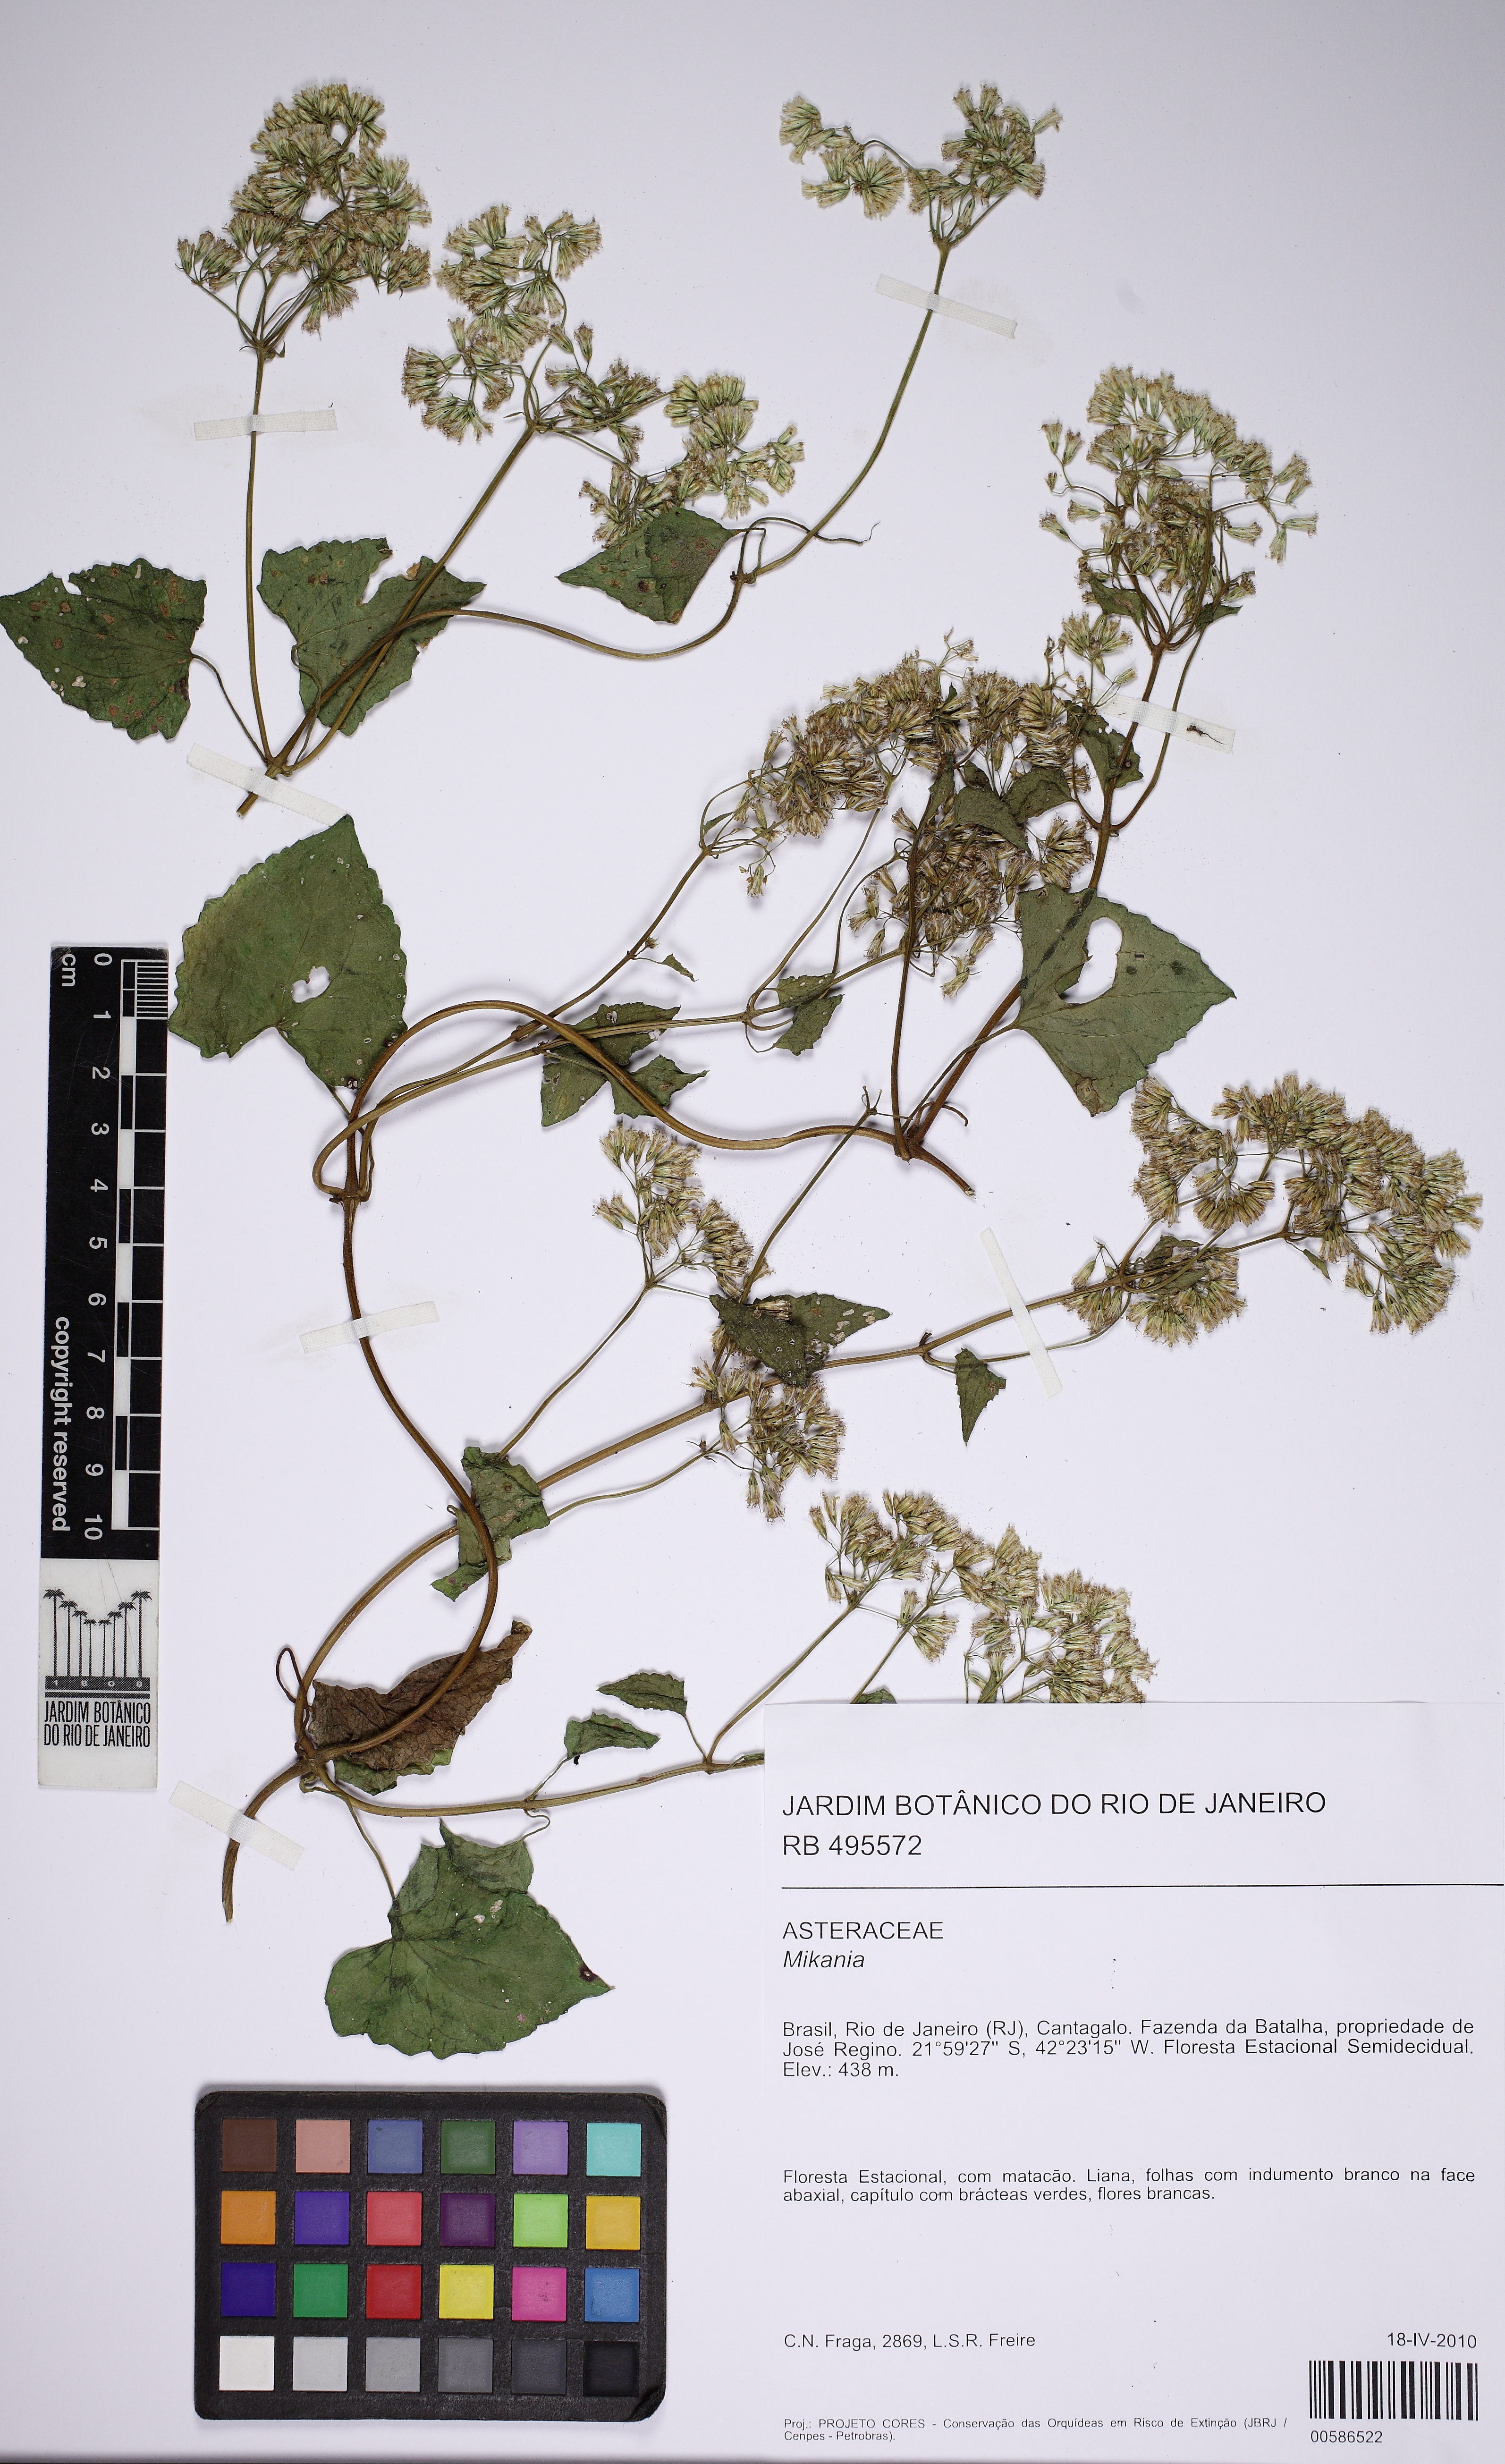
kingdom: Plantae
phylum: Tracheophyta
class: Magnoliopsida
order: Asterales
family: Asteraceae
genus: Mikania
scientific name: Mikania
